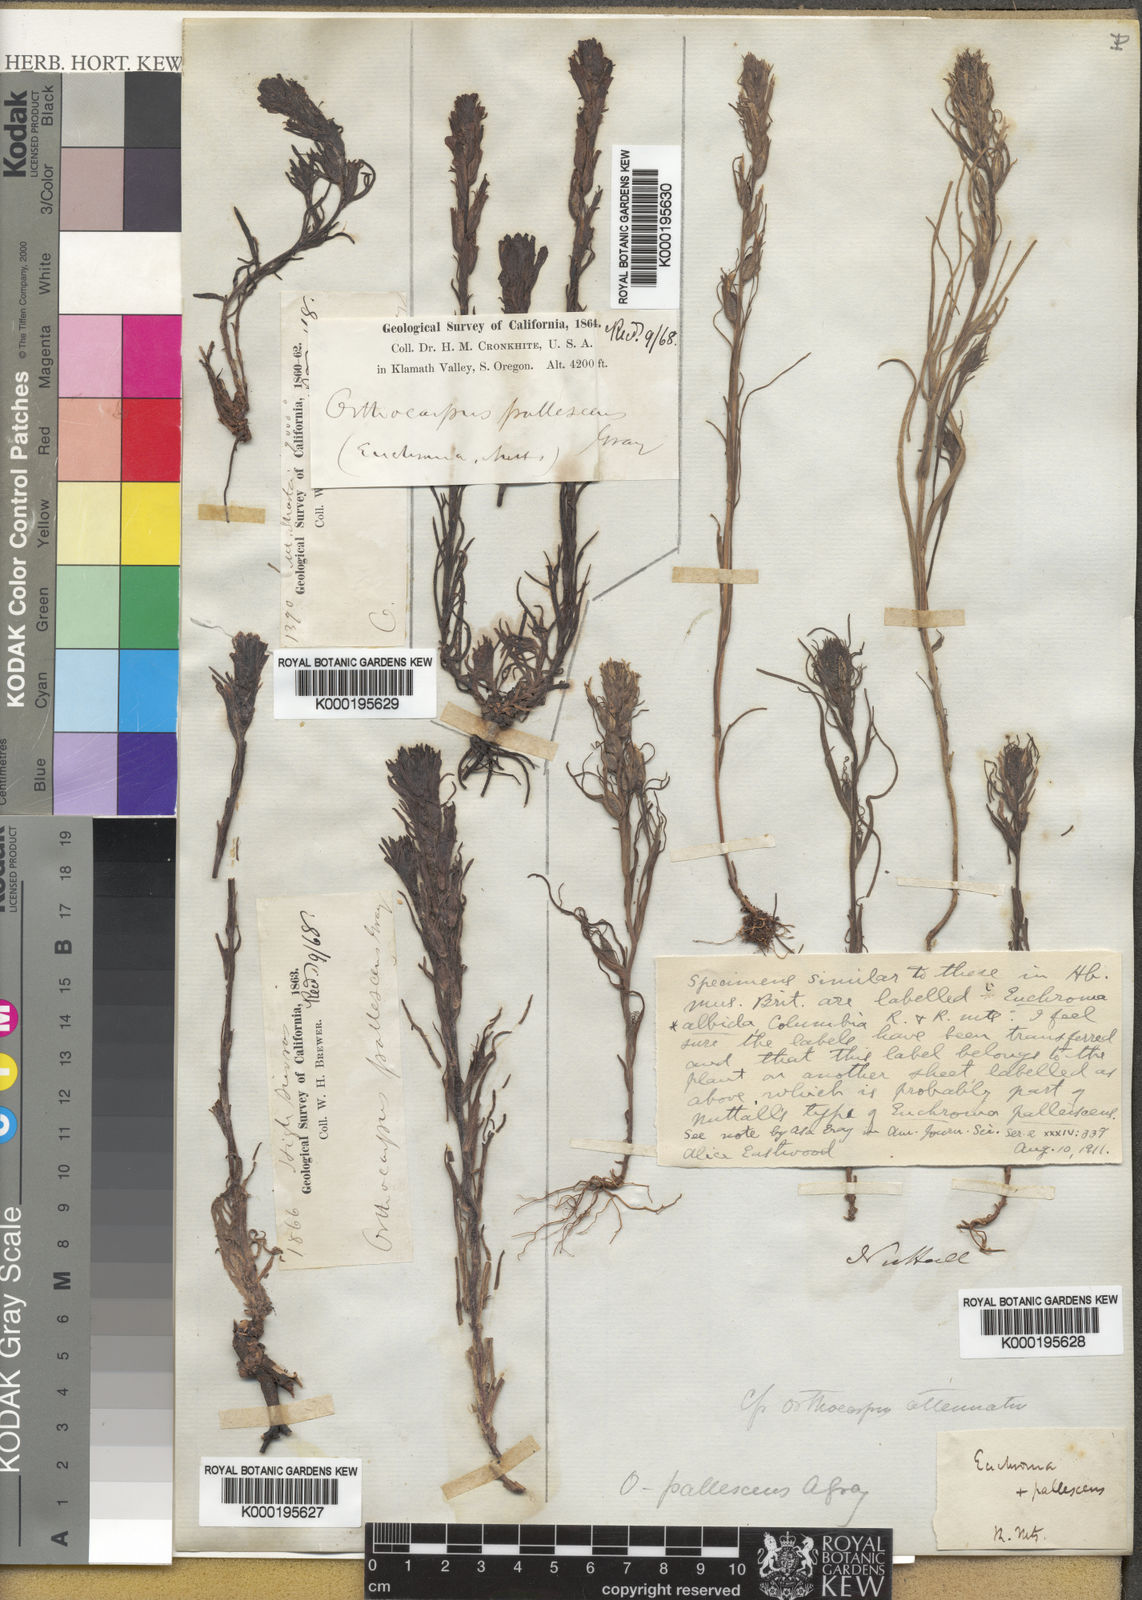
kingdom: Plantae
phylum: Tracheophyta
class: Magnoliopsida
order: Lamiales
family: Orobanchaceae
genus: Castilleja
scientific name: Castilleja attenuata
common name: Valley tassels
